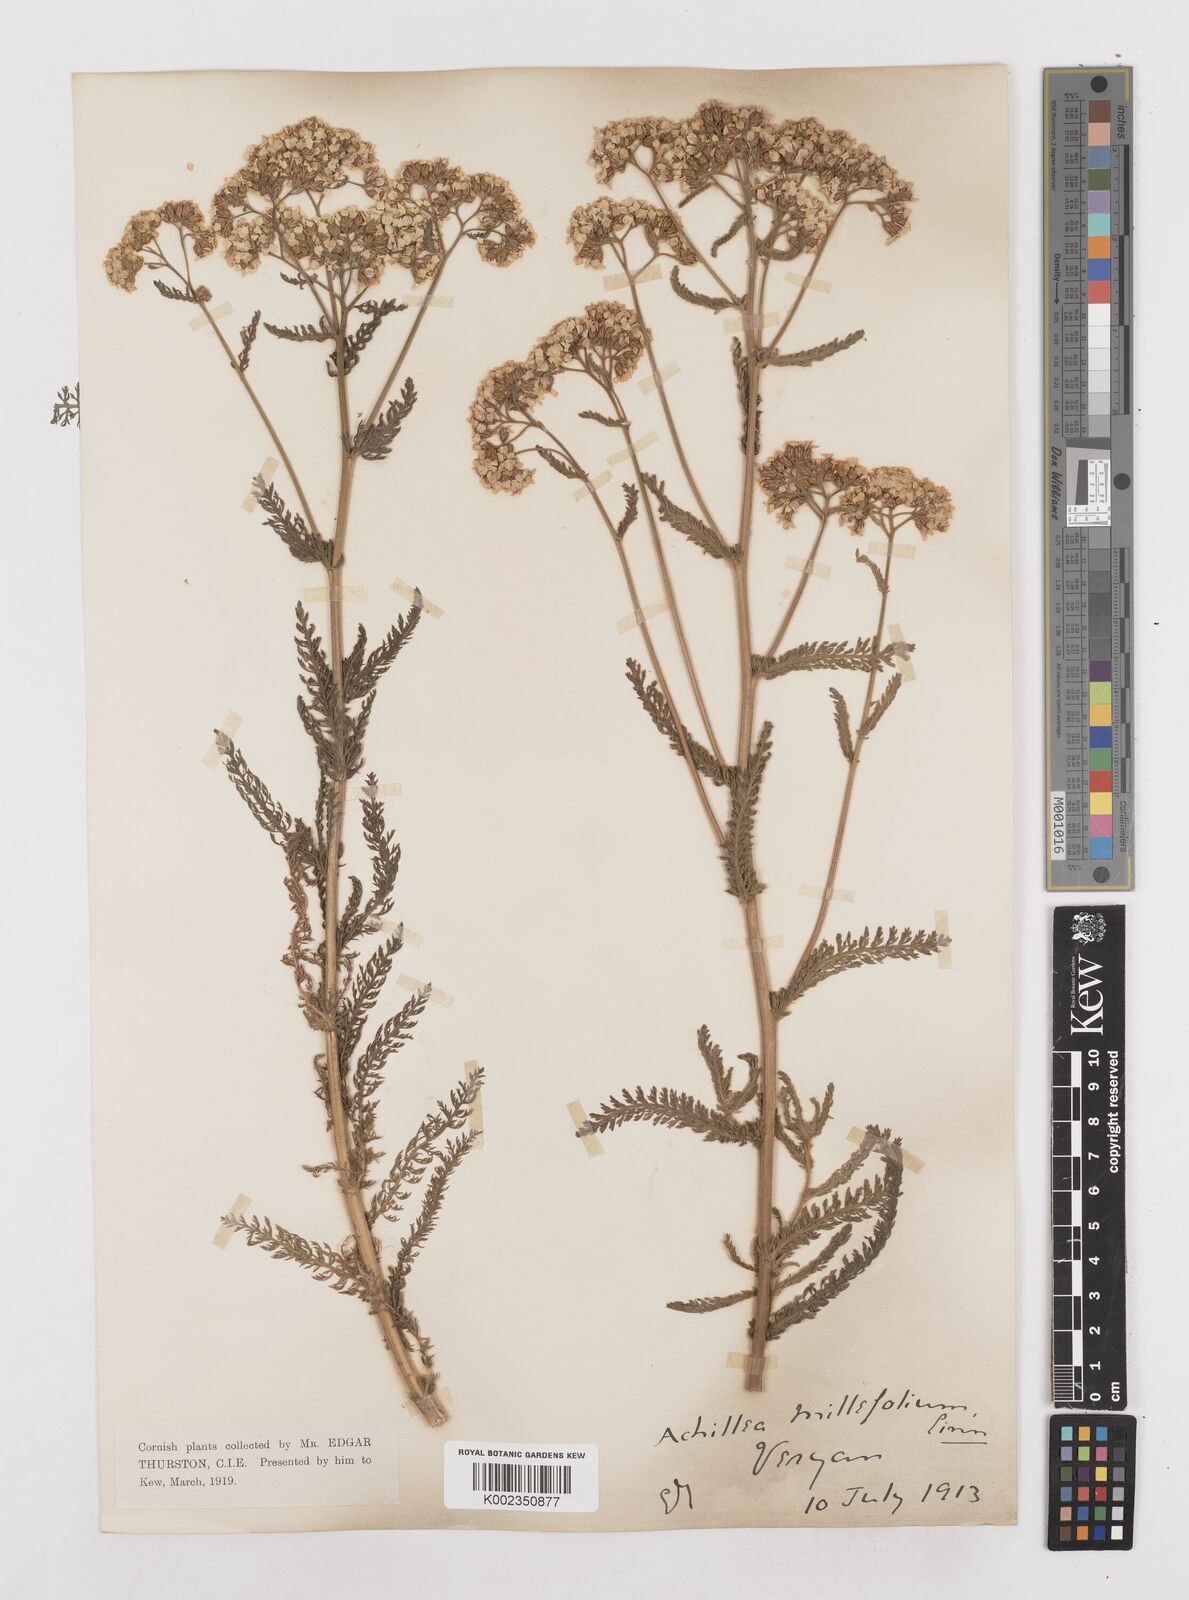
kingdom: Plantae
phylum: Tracheophyta
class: Magnoliopsida
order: Asterales
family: Asteraceae
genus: Achillea
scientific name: Achillea millefolium
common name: Yarrow
